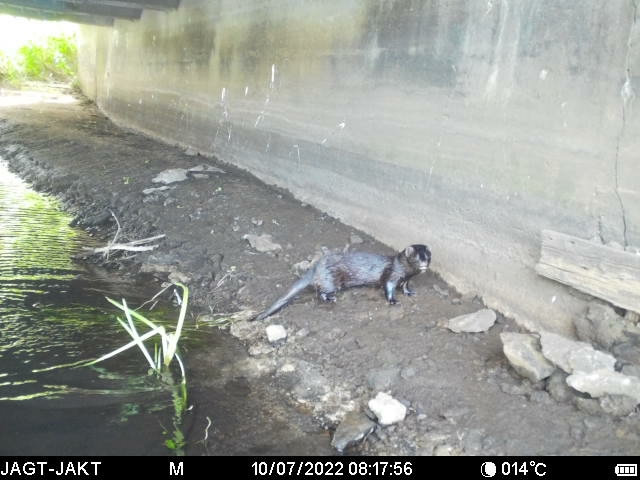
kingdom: Animalia
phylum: Chordata
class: Mammalia
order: Carnivora
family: Mustelidae
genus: Mustela
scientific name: Mustela vison
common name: Mink
